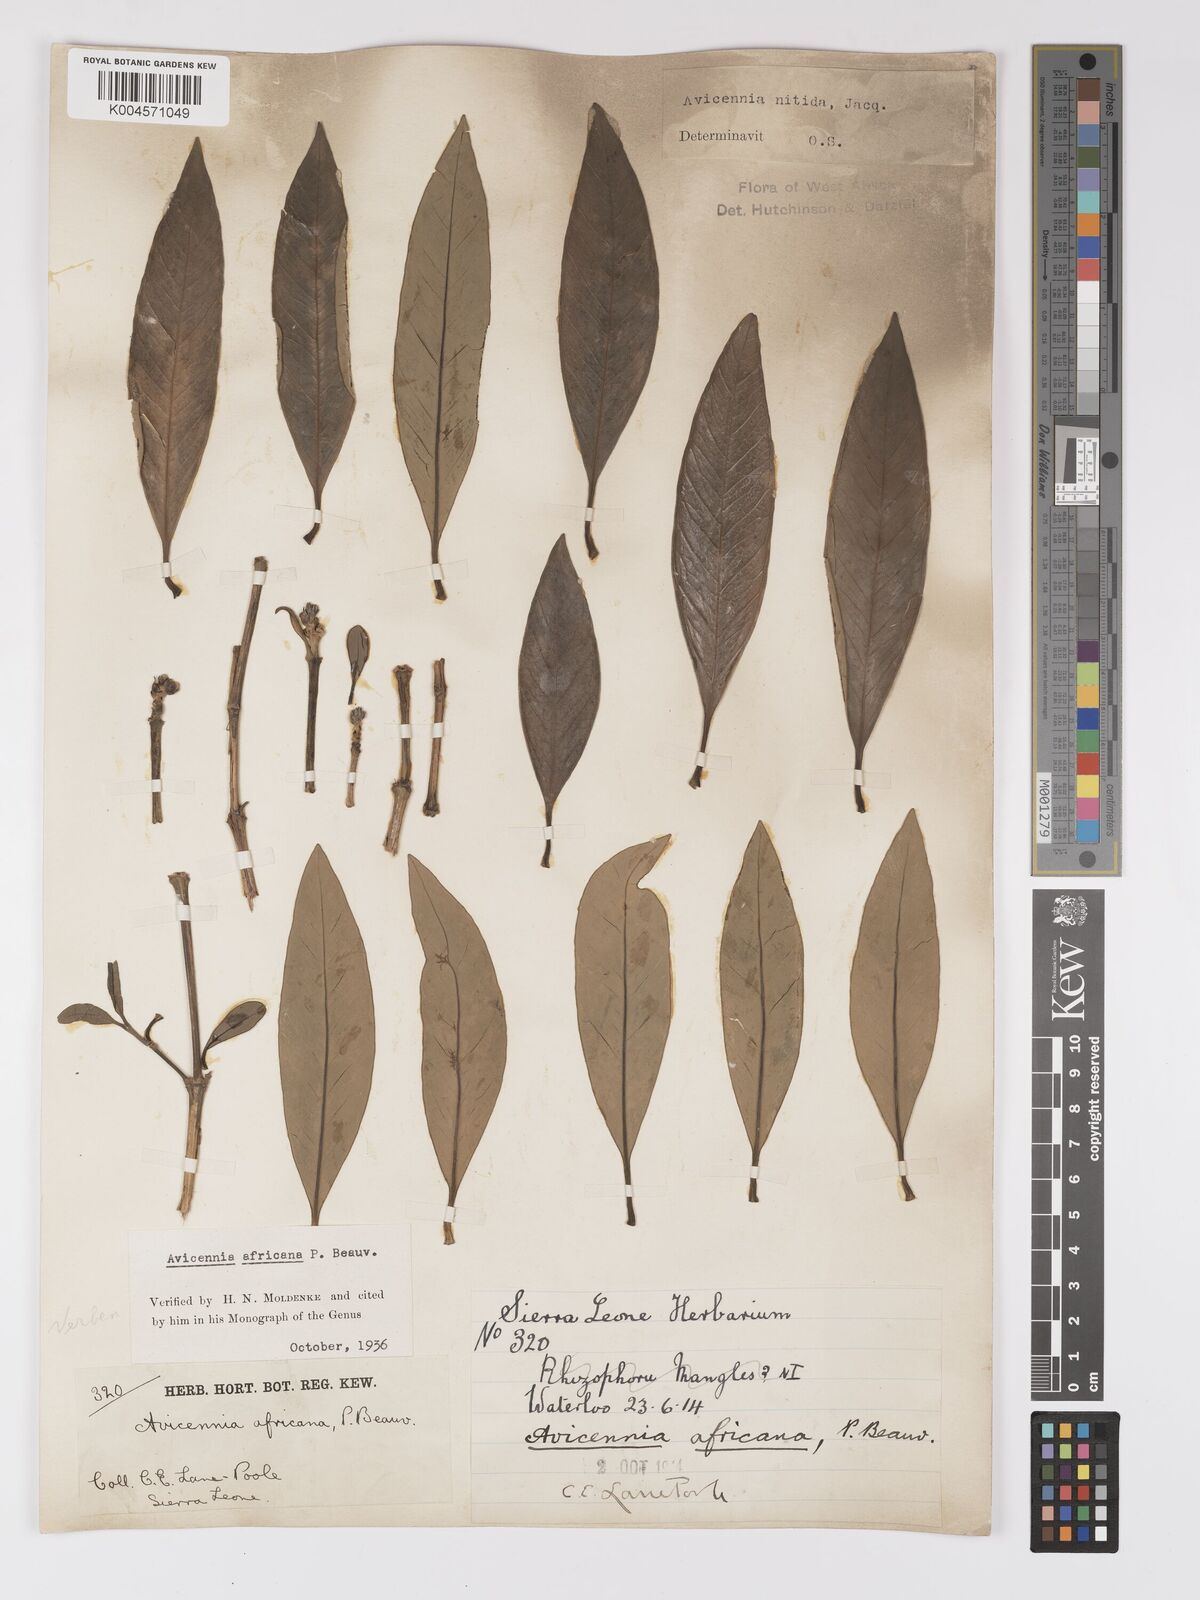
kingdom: Plantae
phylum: Tracheophyta
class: Magnoliopsida
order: Lamiales
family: Acanthaceae
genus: Avicennia
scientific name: Avicennia germinans
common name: Black mangrove
